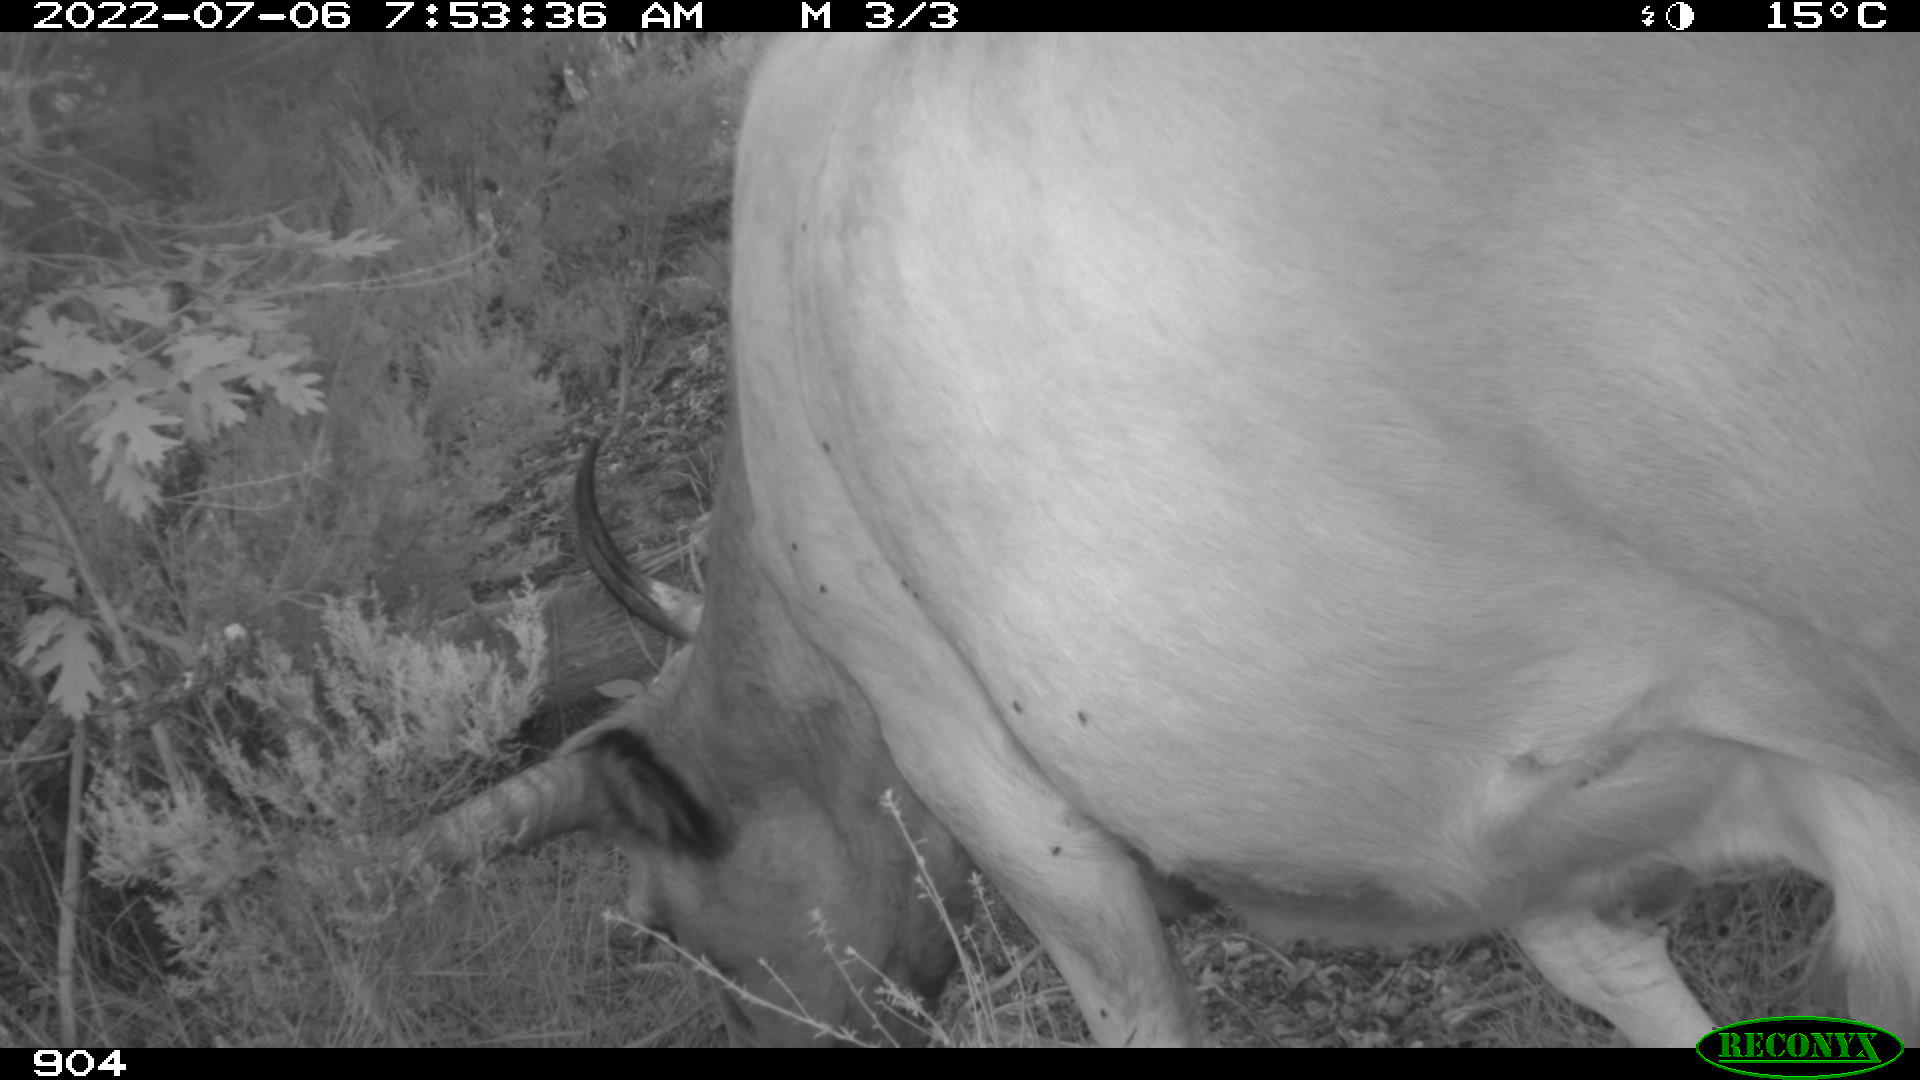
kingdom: Animalia
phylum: Chordata
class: Mammalia
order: Artiodactyla
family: Bovidae
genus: Bos
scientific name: Bos taurus
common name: Domesticated cattle
